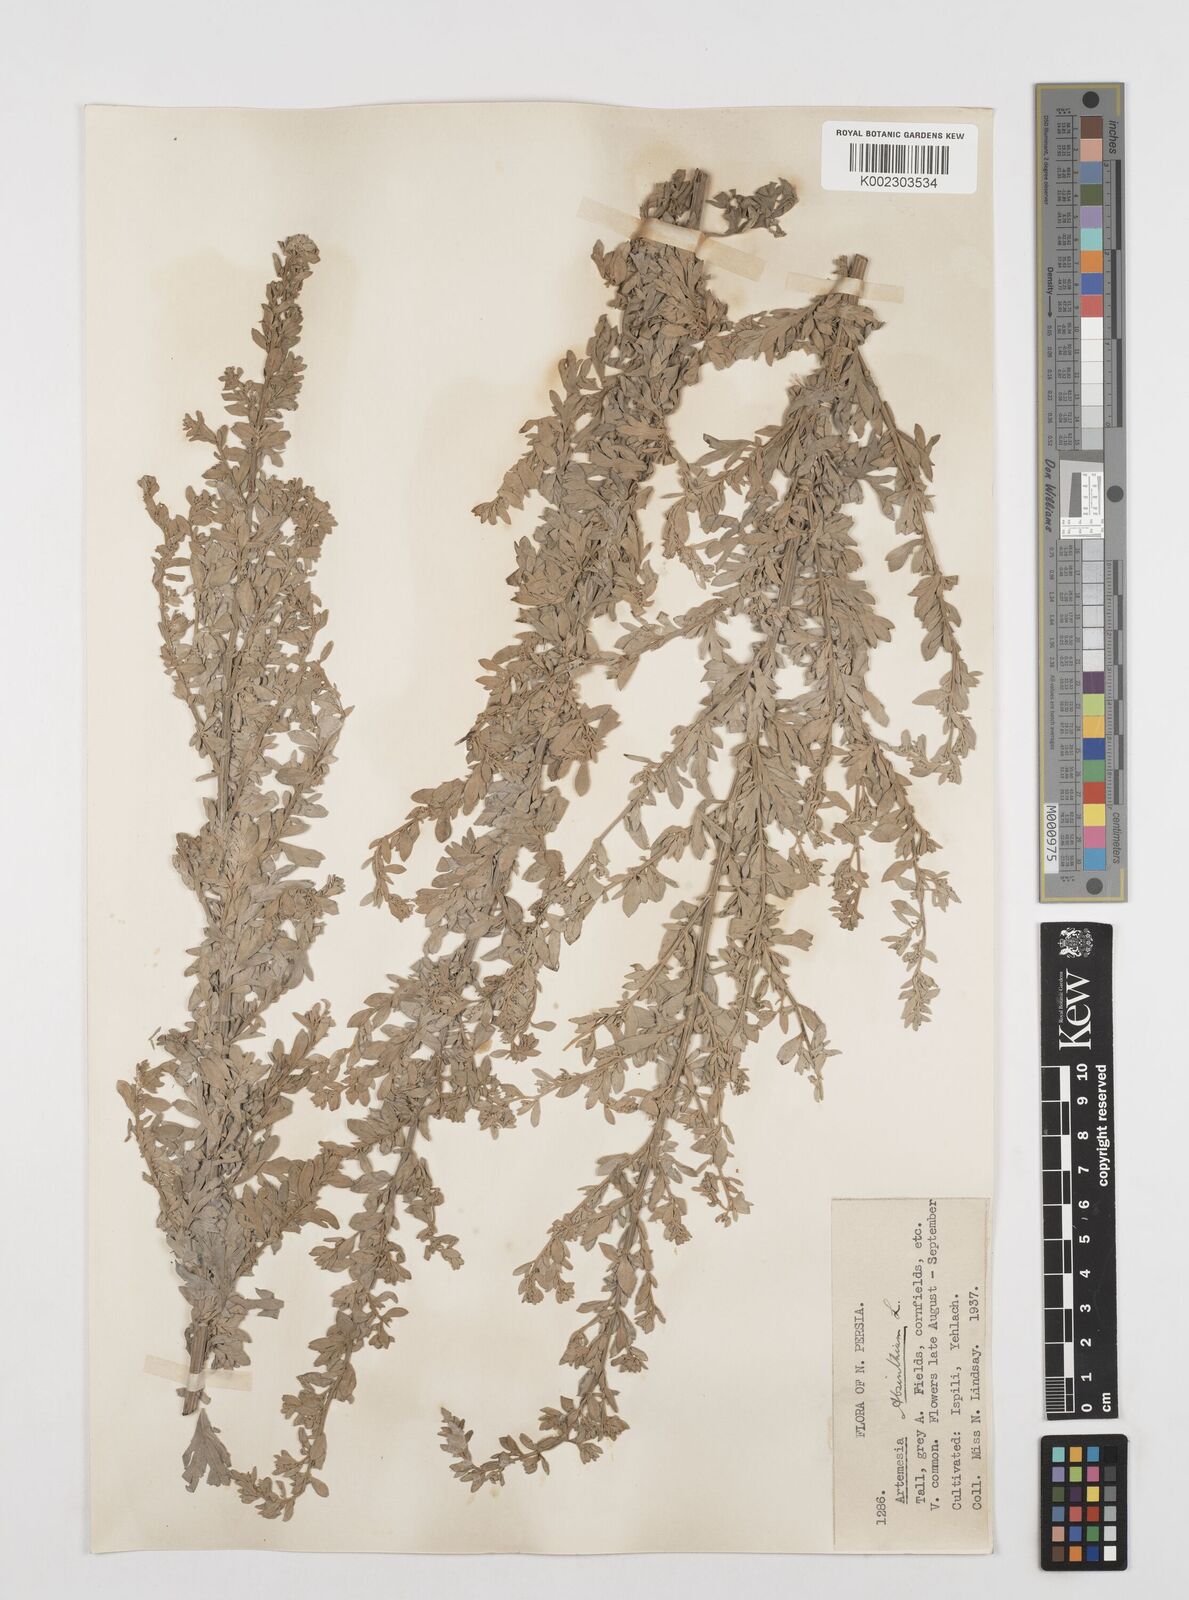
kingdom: Plantae
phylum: Tracheophyta
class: Magnoliopsida
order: Asterales
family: Asteraceae
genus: Artemisia
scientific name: Artemisia absinthium
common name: Wormwood
